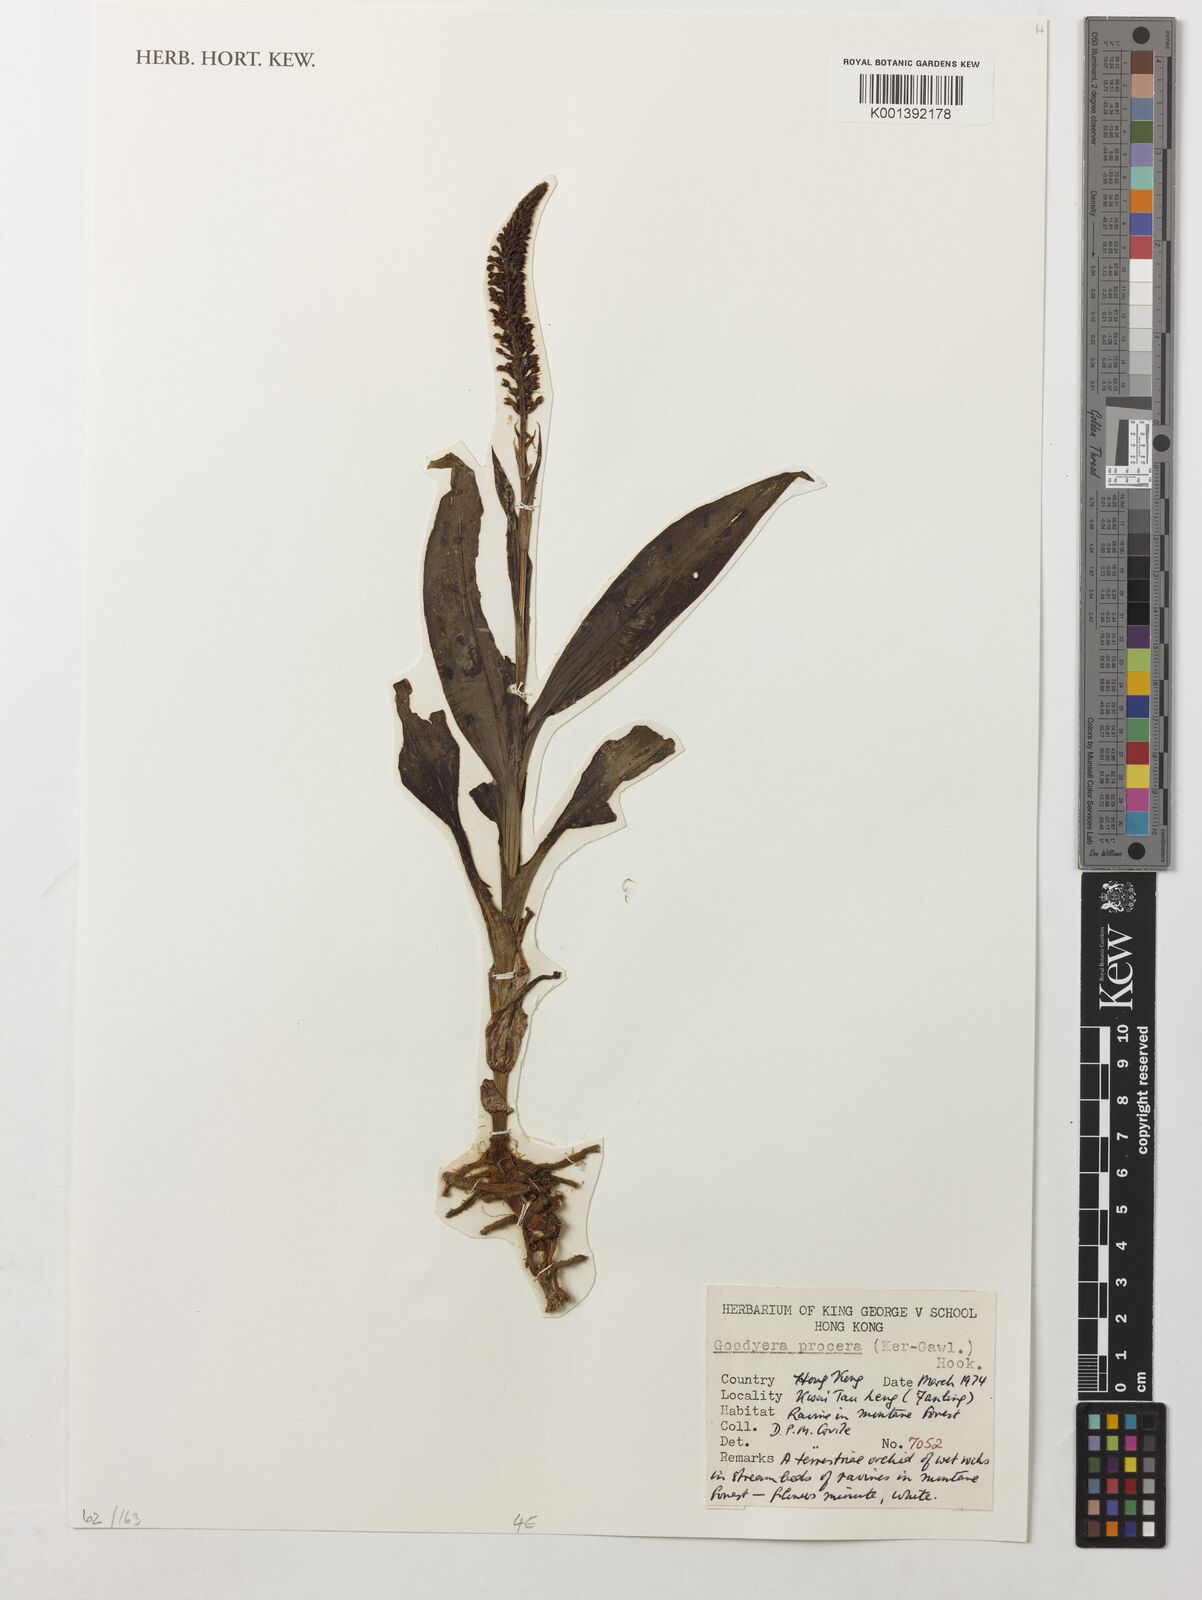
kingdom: Plantae
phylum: Tracheophyta
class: Liliopsida
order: Asparagales
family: Orchidaceae
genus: Goodyera
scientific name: Goodyera procera
